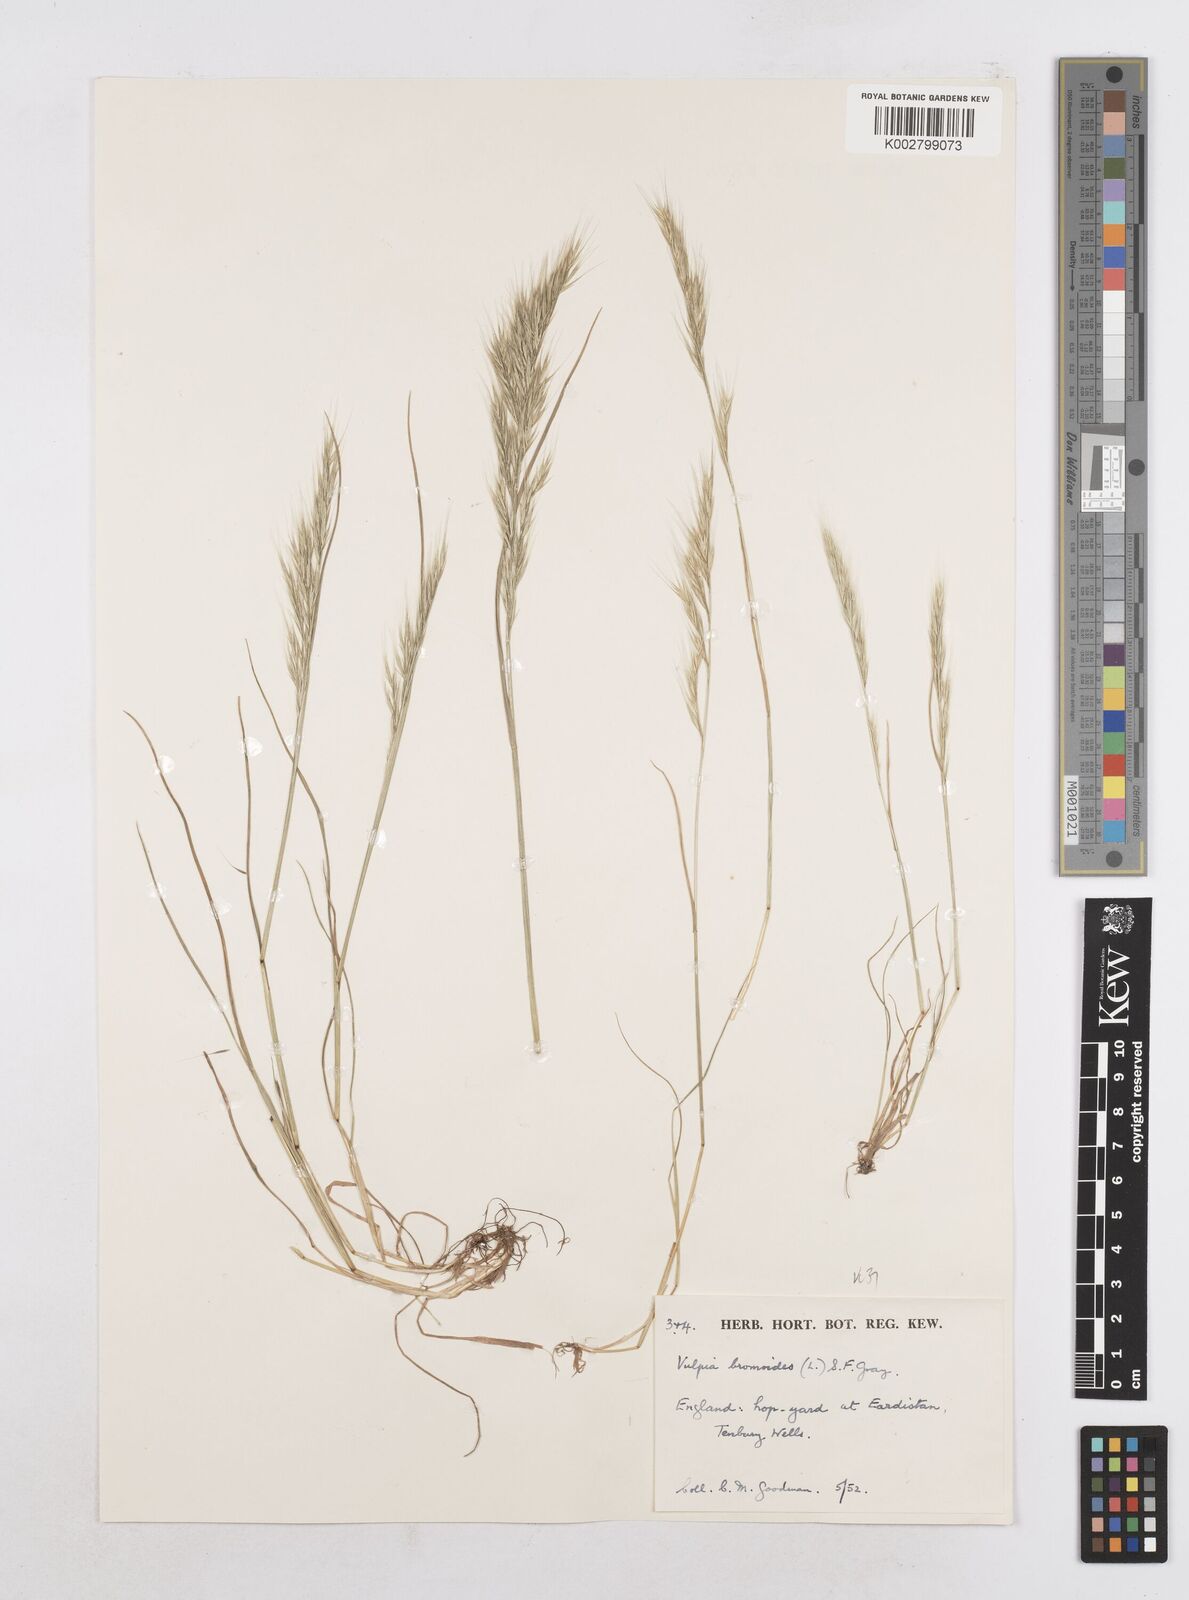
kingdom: Plantae
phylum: Tracheophyta
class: Liliopsida
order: Poales
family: Poaceae
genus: Festuca
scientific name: Festuca bromoides
